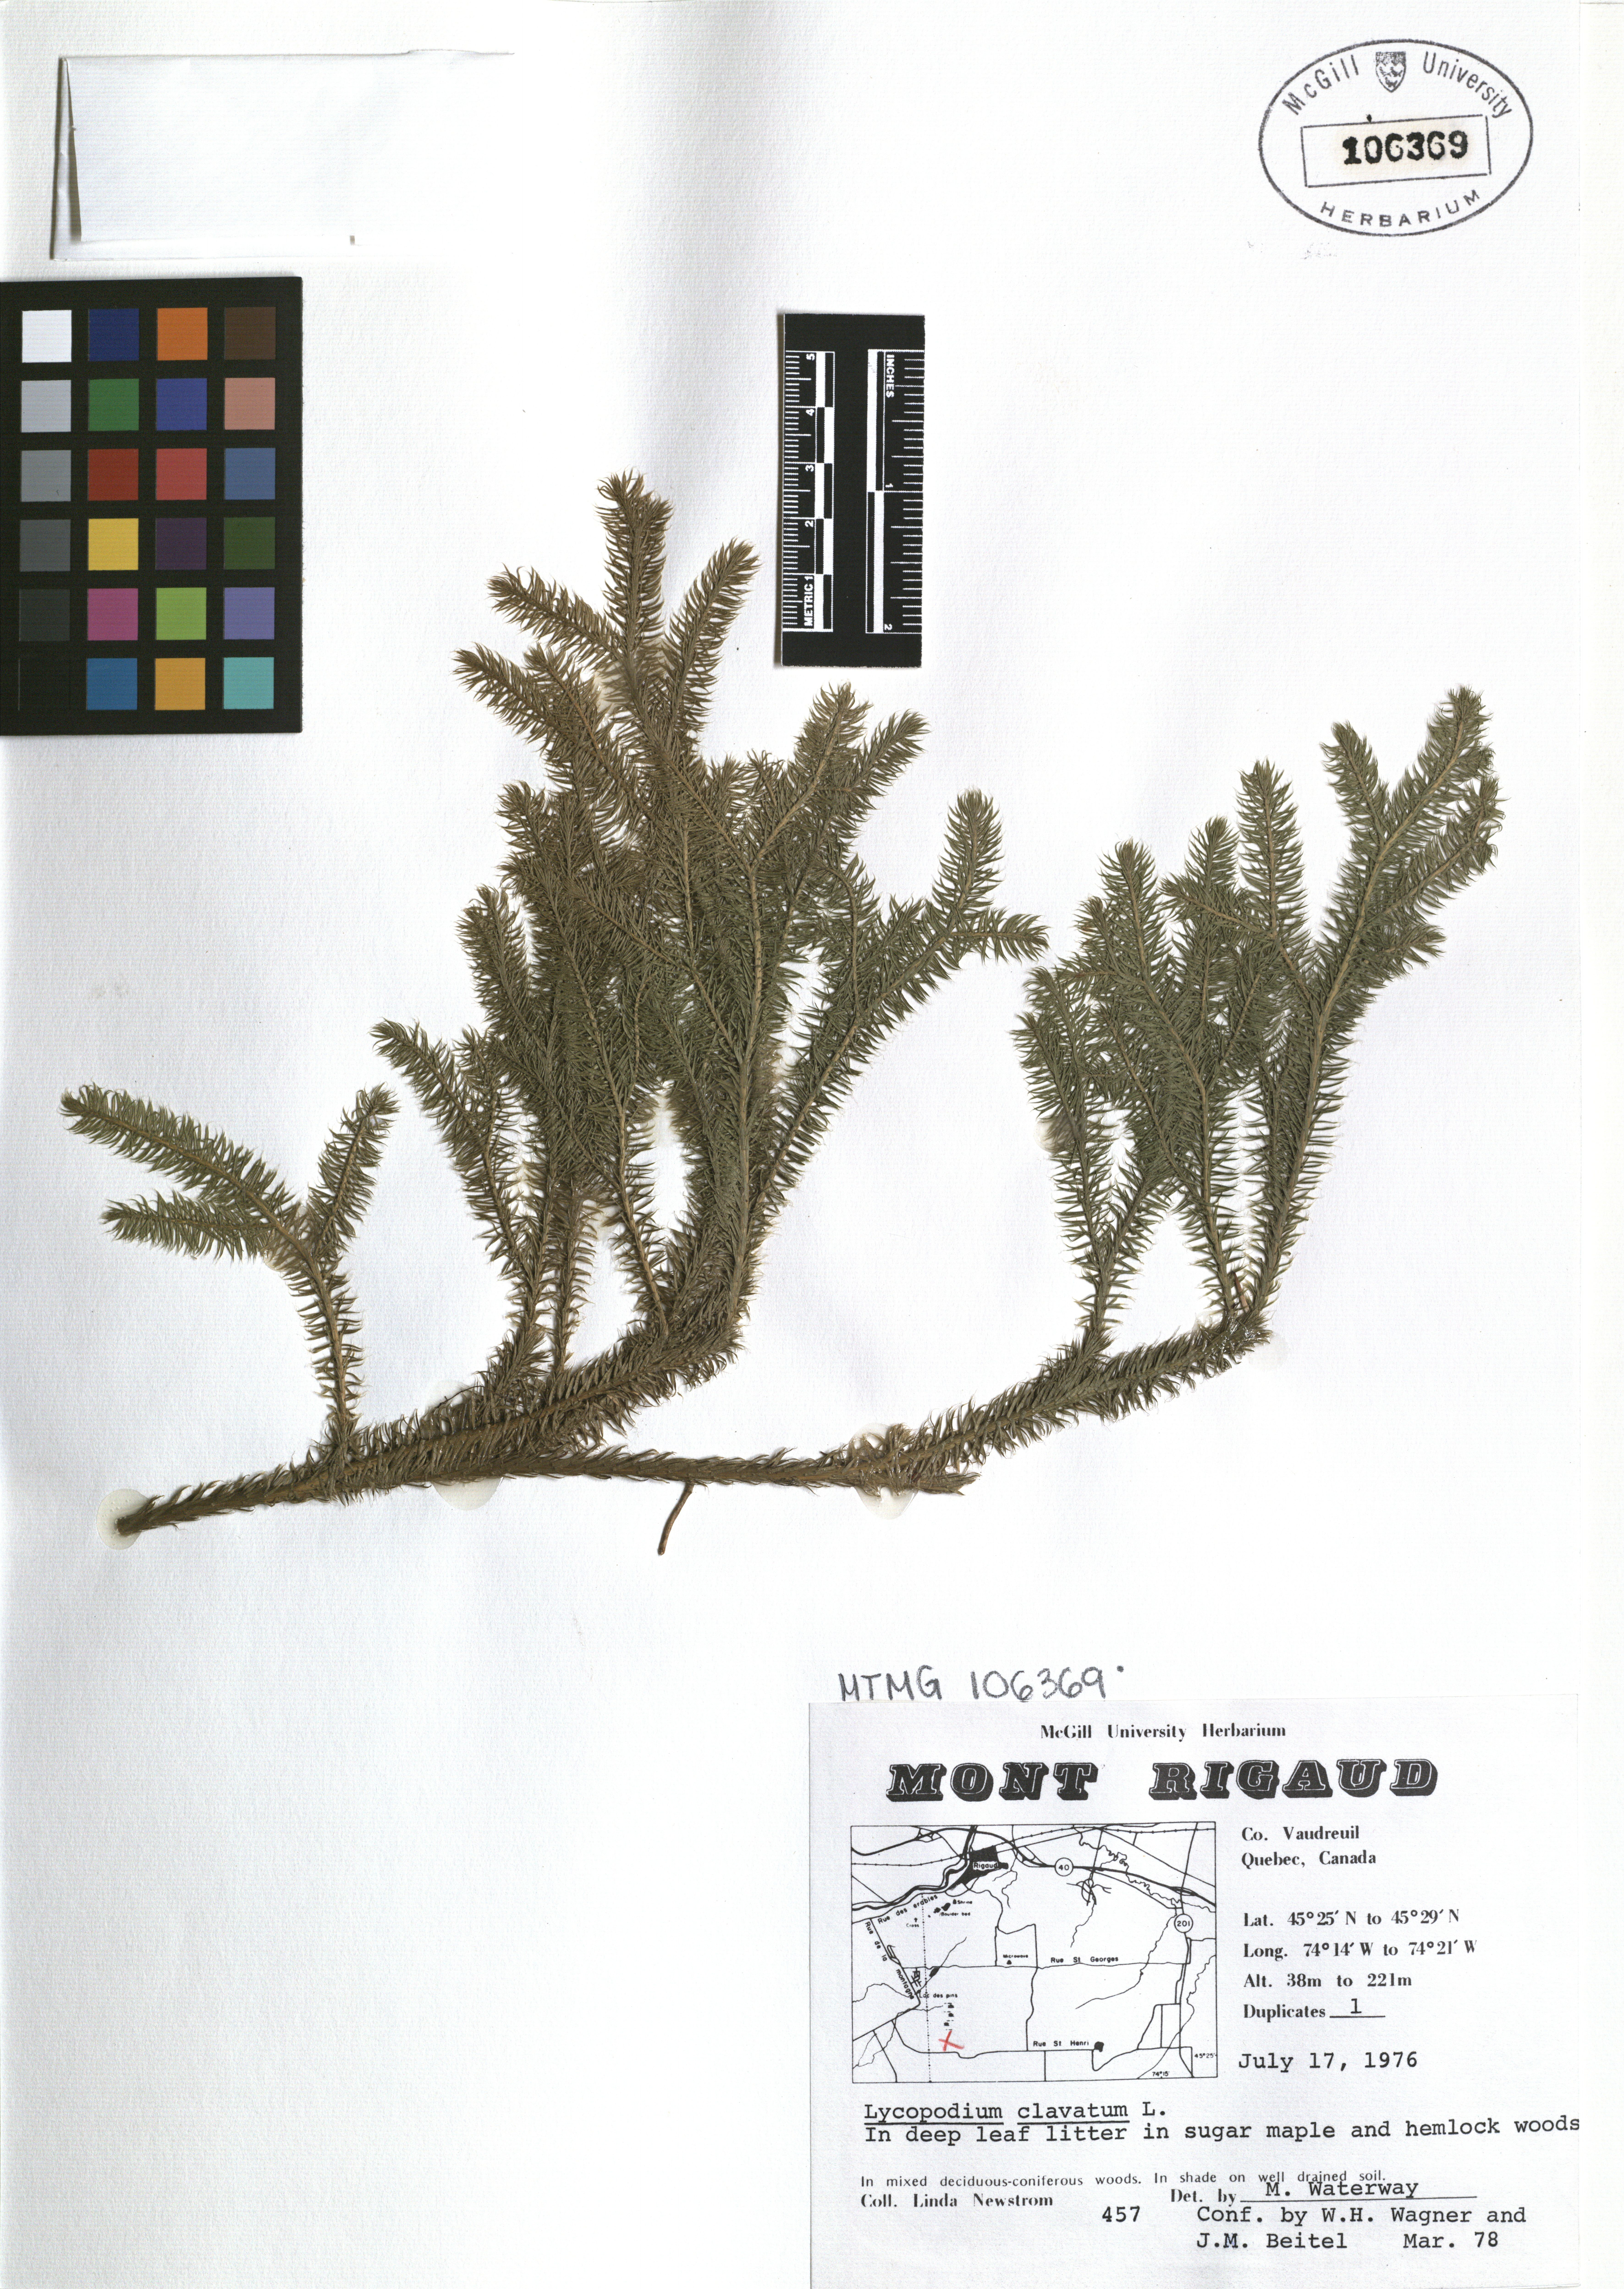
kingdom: Plantae
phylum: Tracheophyta
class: Lycopodiopsida
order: Lycopodiales
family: Lycopodiaceae
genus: Lycopodium
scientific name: Lycopodium clavatum
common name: Stag's-horn clubmoss
